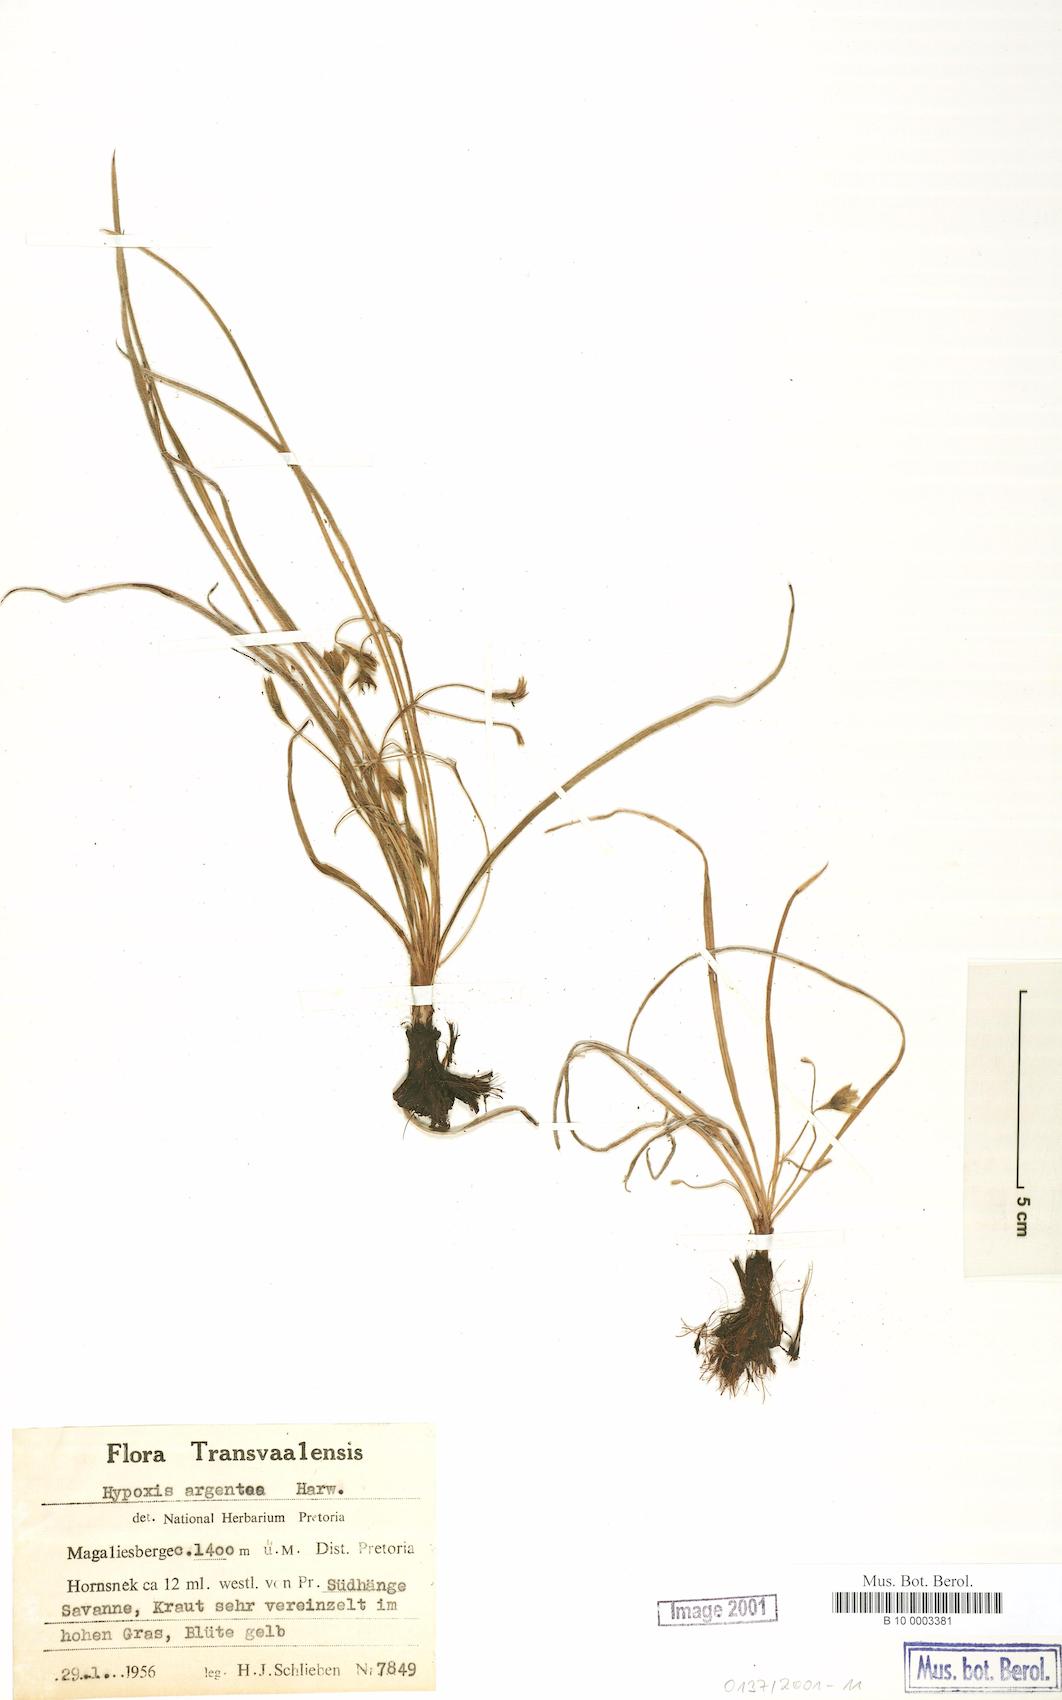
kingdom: Plantae
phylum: Tracheophyta
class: Liliopsida
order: Asparagales
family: Hypoxidaceae
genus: Hypoxis
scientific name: Hypoxis argentea
